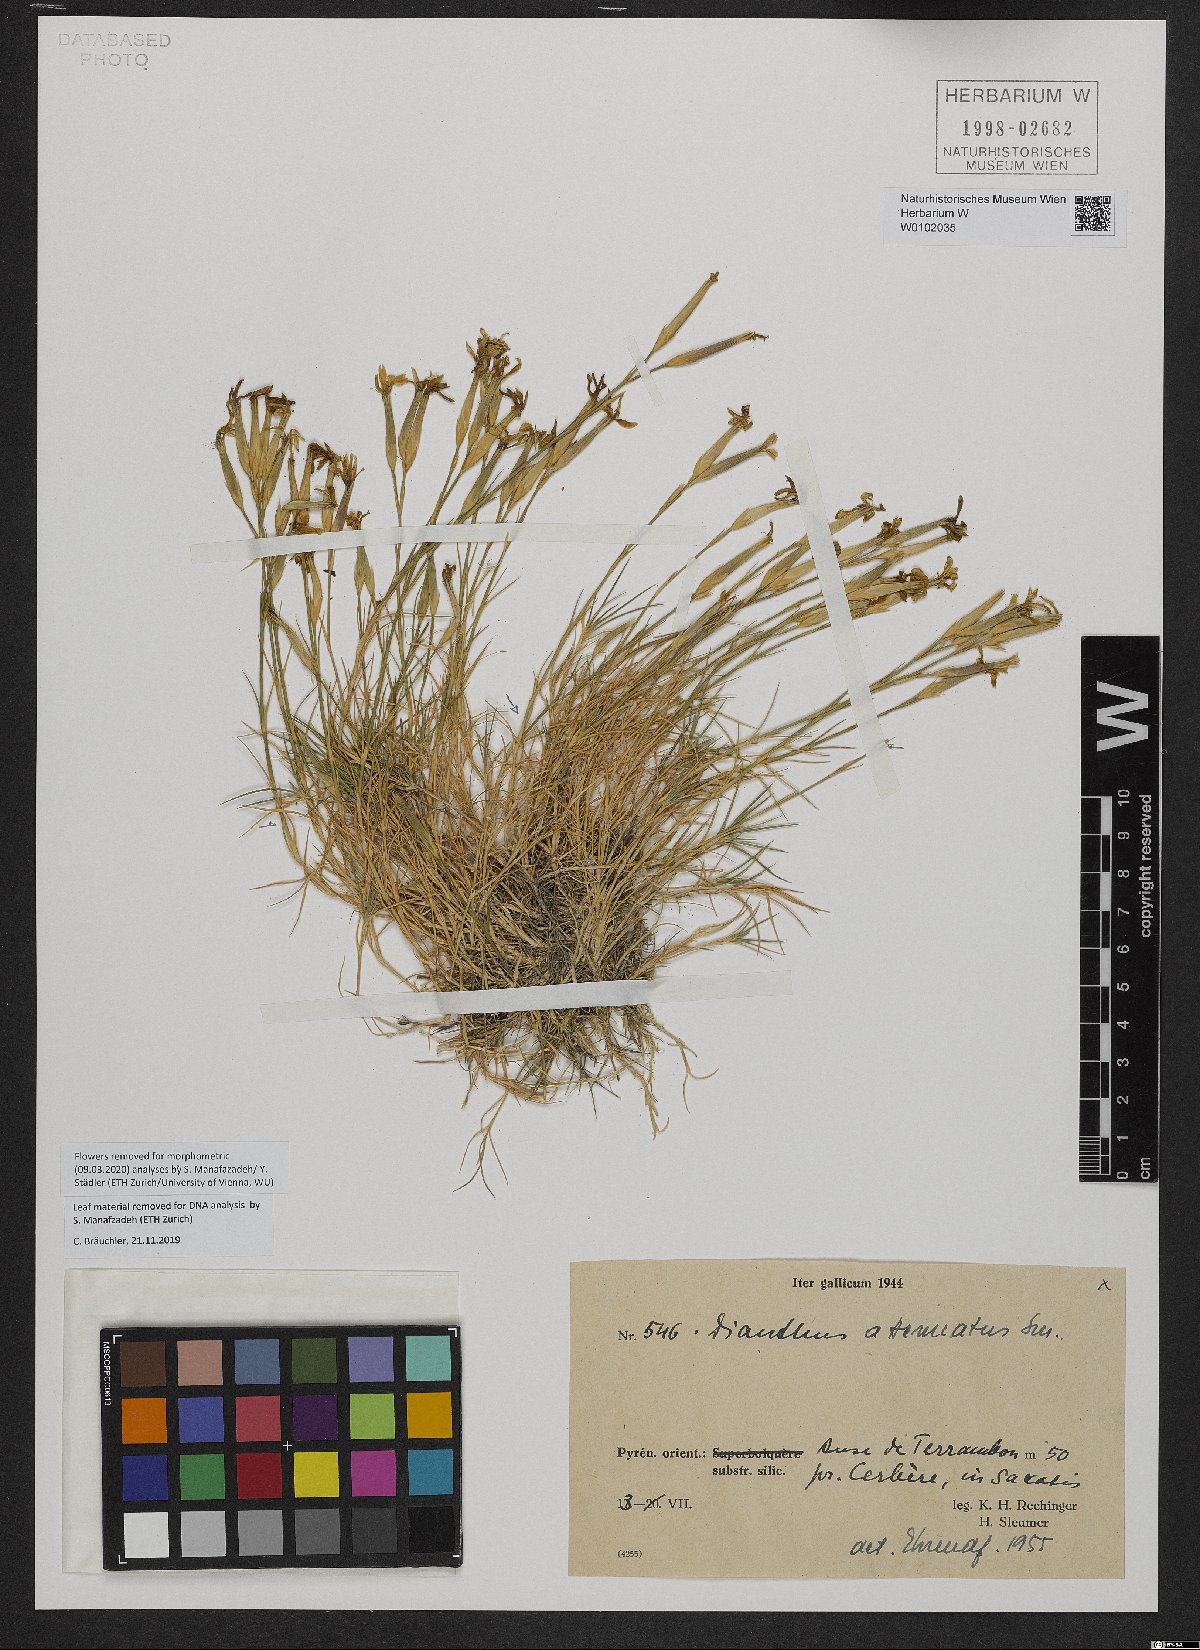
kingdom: Plantae
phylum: Tracheophyta
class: Magnoliopsida
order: Caryophyllales
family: Caryophyllaceae
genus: Dianthus
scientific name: Dianthus pyrenaicus
